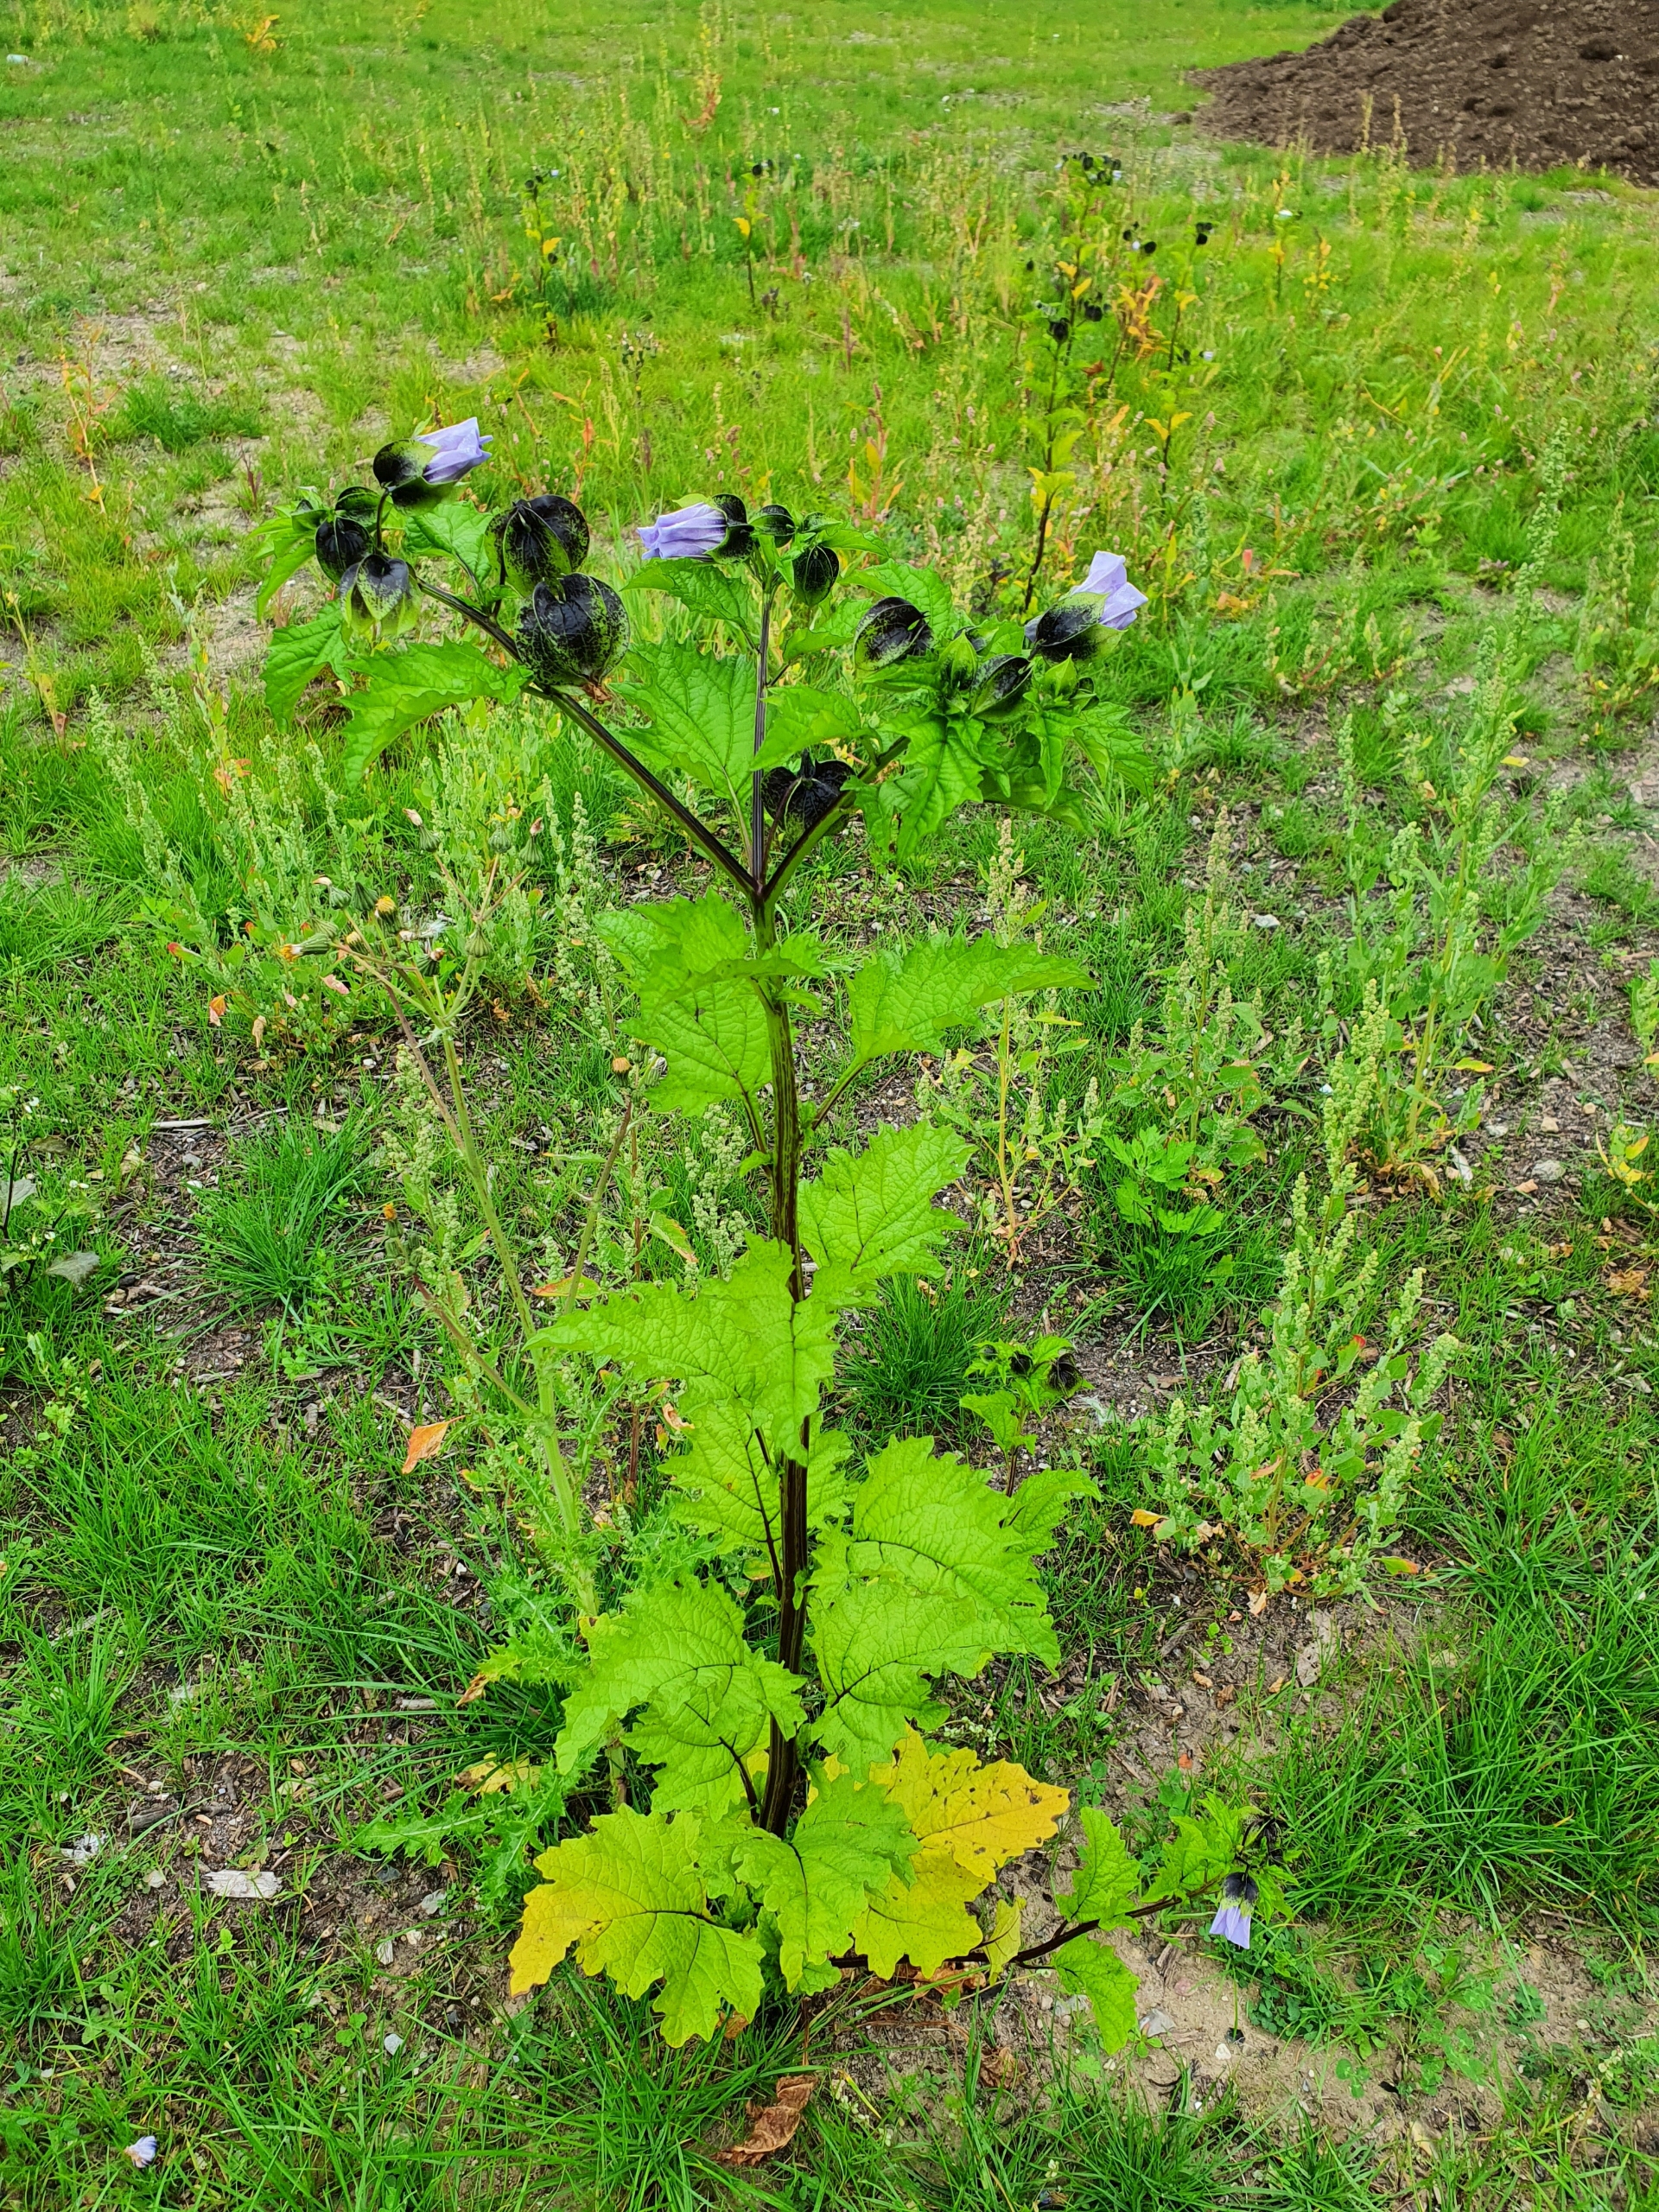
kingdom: Plantae
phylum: Tracheophyta
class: Magnoliopsida
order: Solanales
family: Solanaceae
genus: Nicandra
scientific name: Nicandra physalodes
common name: Kantbæger
